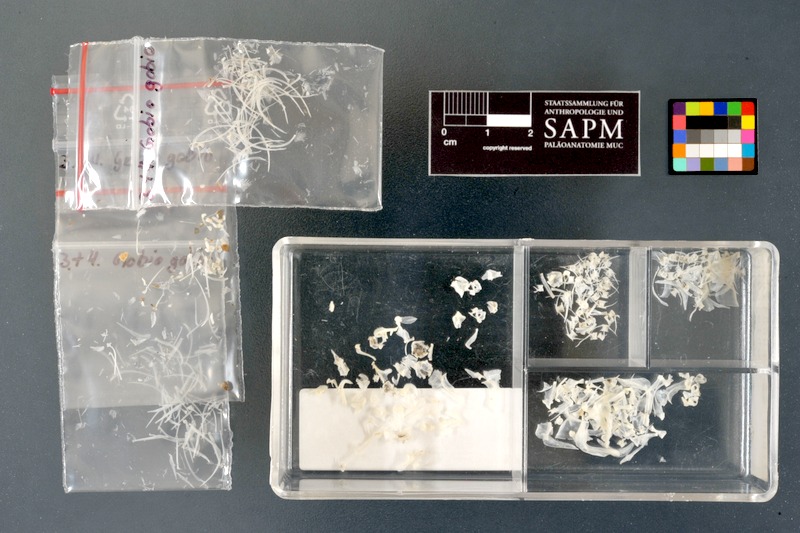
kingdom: Animalia
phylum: Chordata
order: Cypriniformes
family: Cyprinidae
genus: Gobio
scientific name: Gobio gobio
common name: Gudgeon
